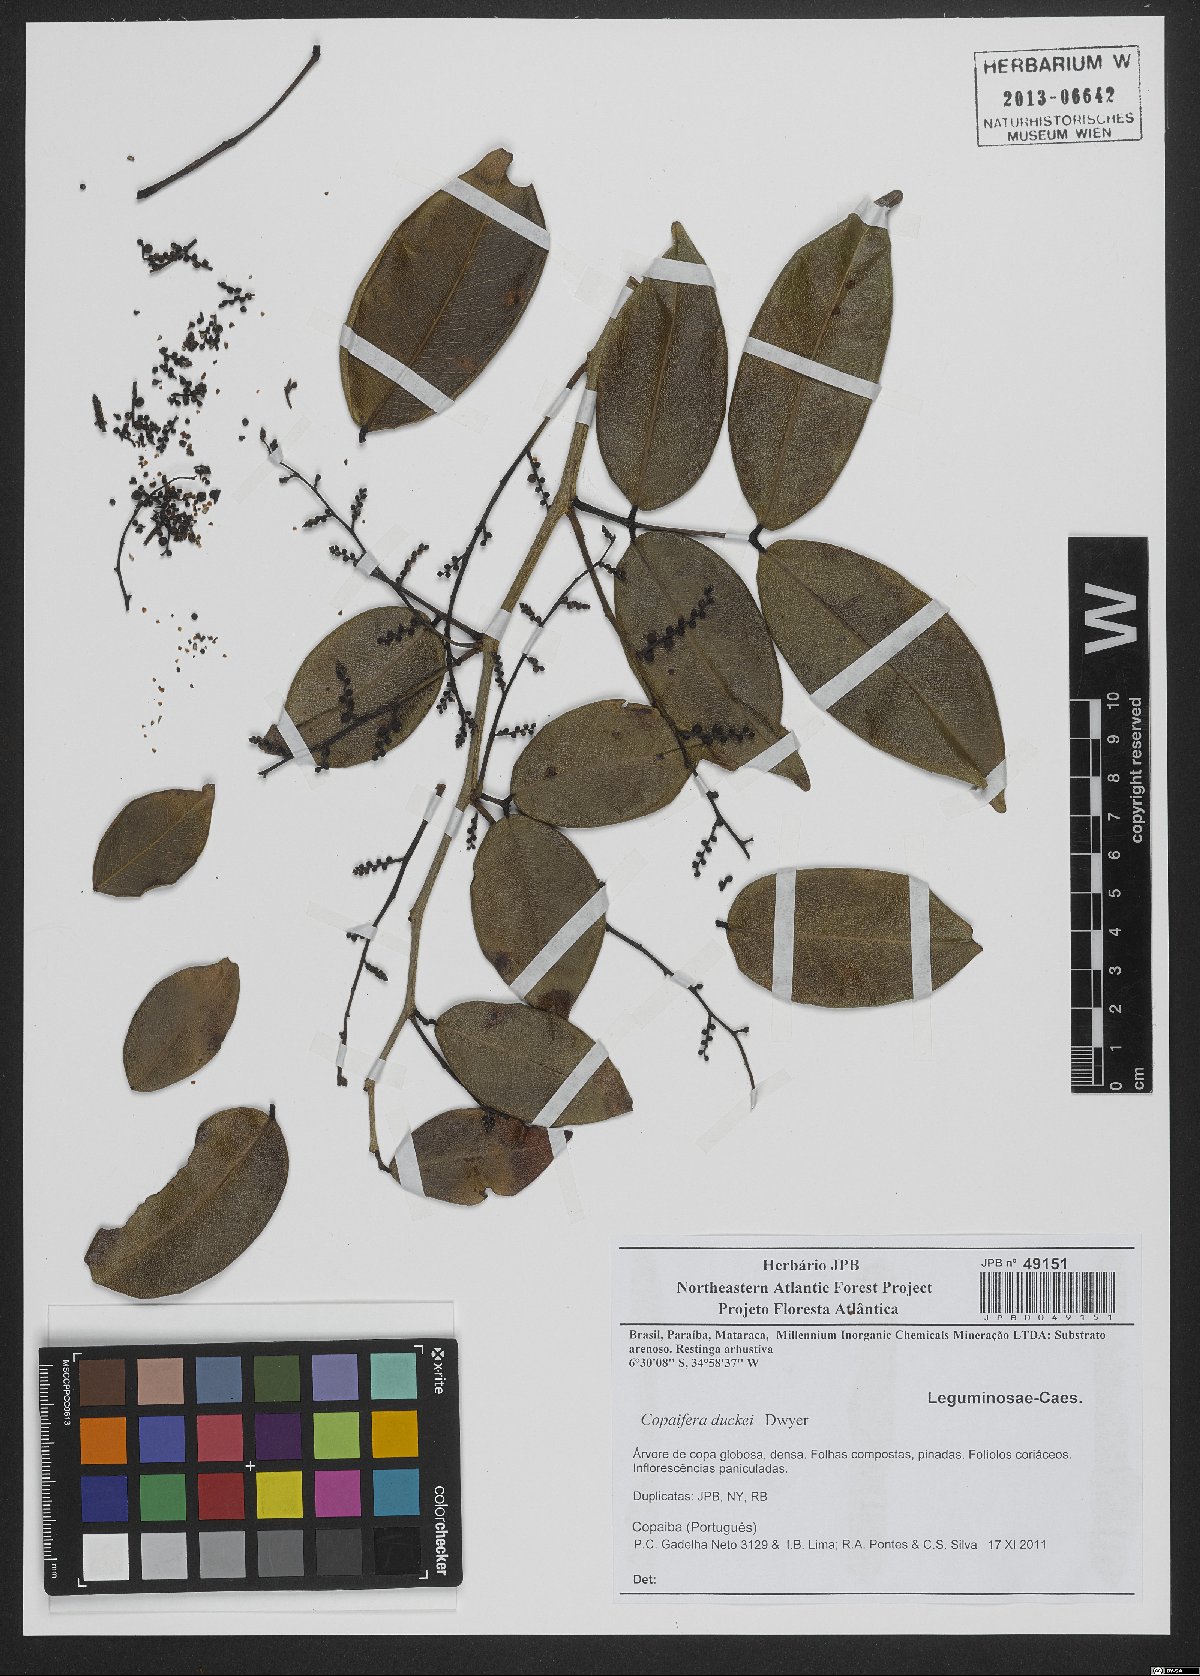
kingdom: Plantae
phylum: Tracheophyta
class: Magnoliopsida
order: Fabales
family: Fabaceae
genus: Copaifera
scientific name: Copaifera duckei
